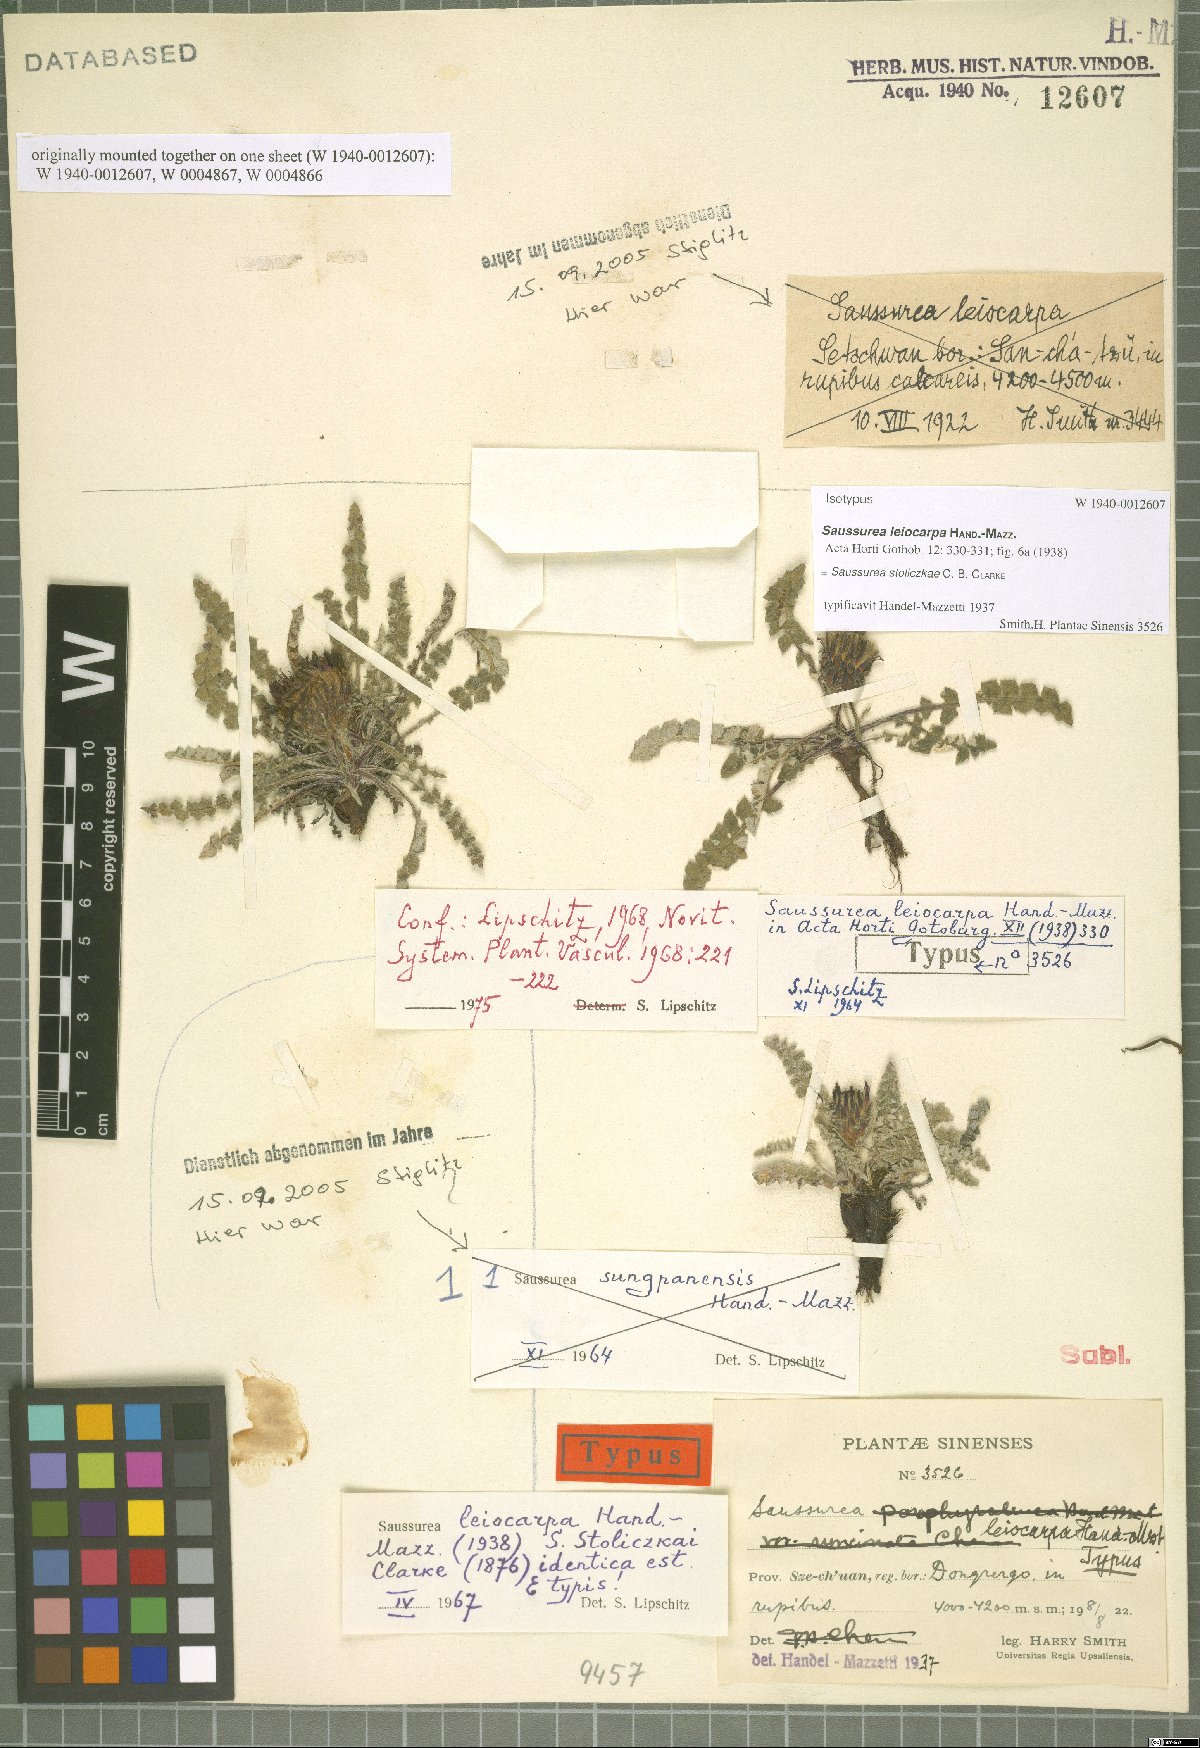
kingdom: Plantae
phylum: Tracheophyta
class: Magnoliopsida
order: Asterales
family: Asteraceae
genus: Saussurea
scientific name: Saussurea stoliczkae
